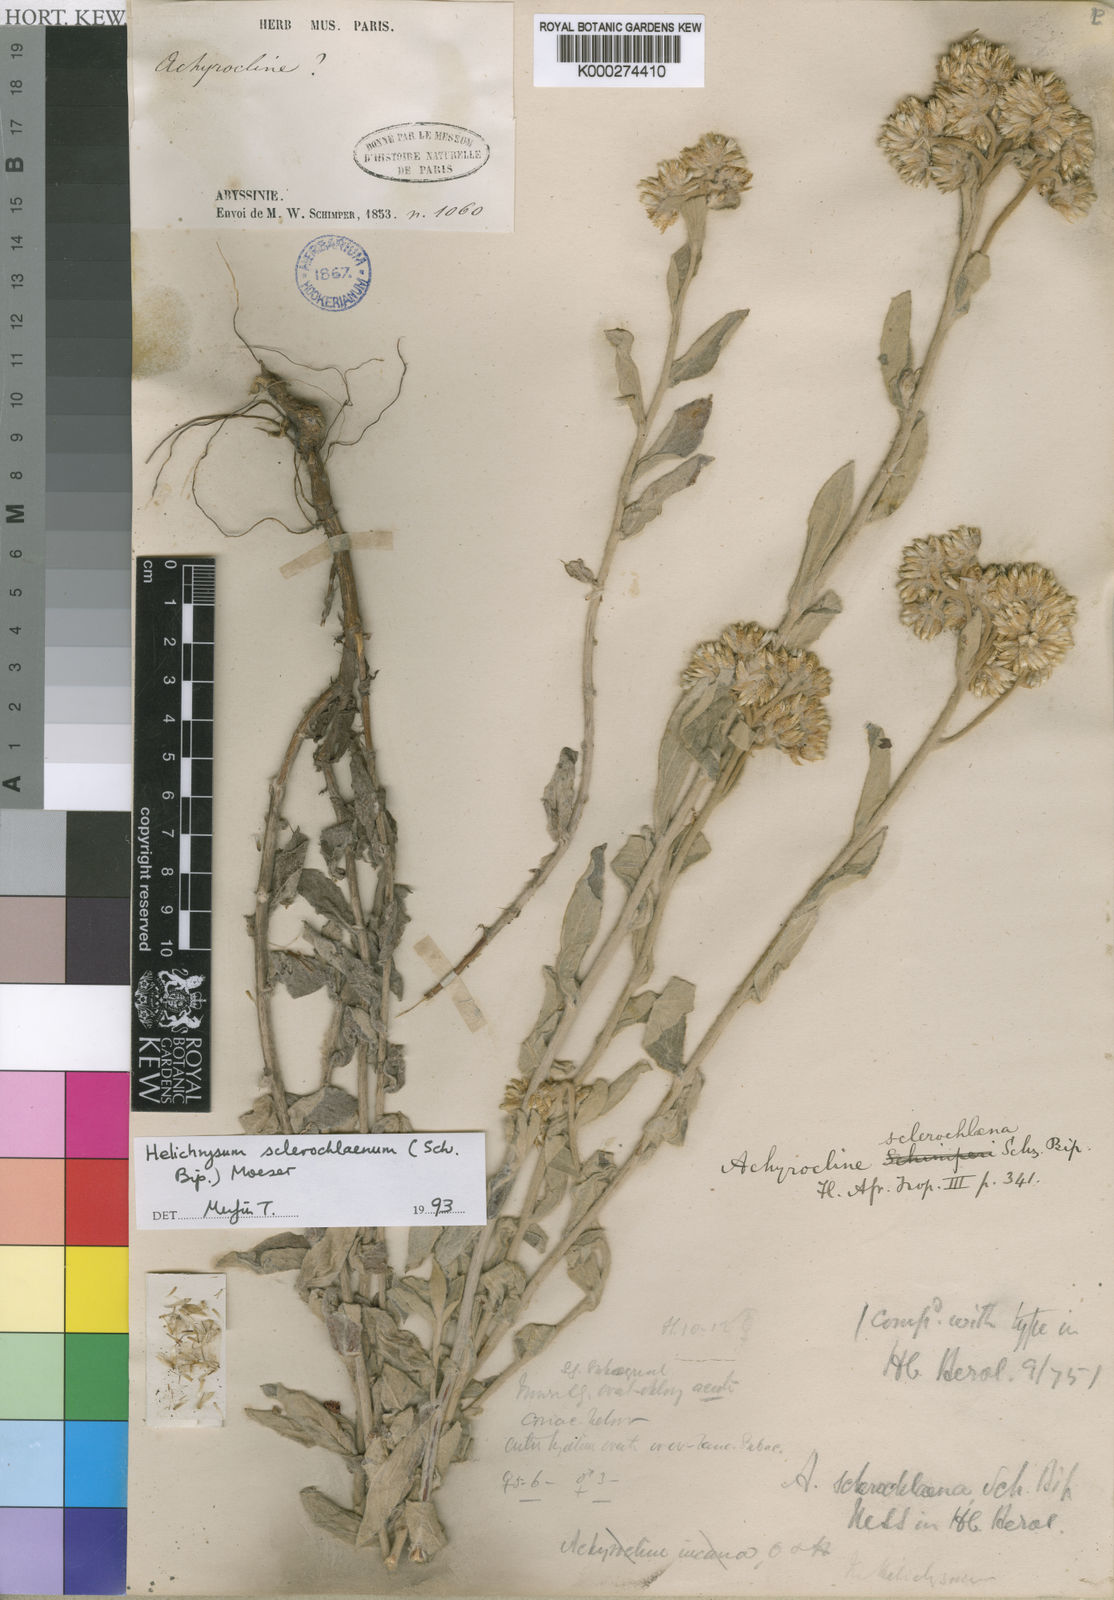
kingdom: Plantae
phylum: Tracheophyta
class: Magnoliopsida
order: Asterales
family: Asteraceae
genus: Helichrysum
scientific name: Helichrysum sclerochlaenum
